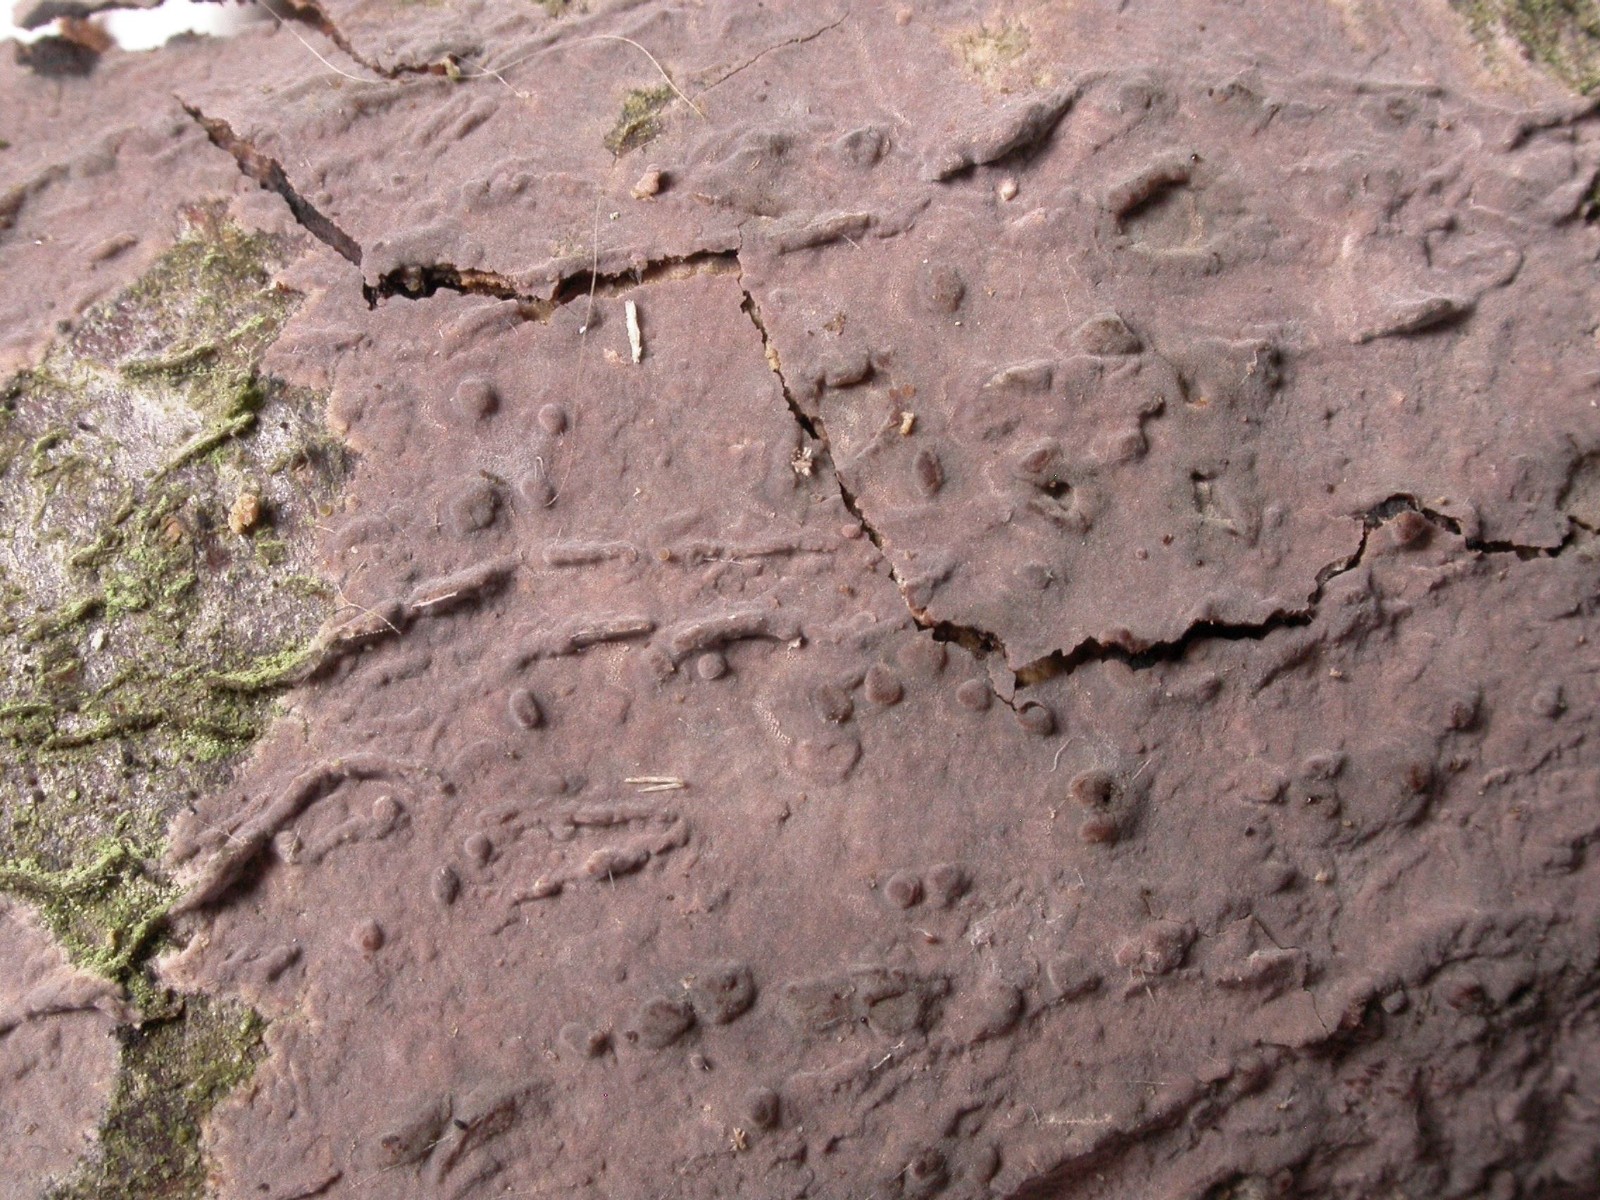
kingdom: Fungi
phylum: Basidiomycota
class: Agaricomycetes
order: Russulales
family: Peniophoraceae
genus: Peniophora
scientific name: Peniophora cinerea
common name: grå voksskind
